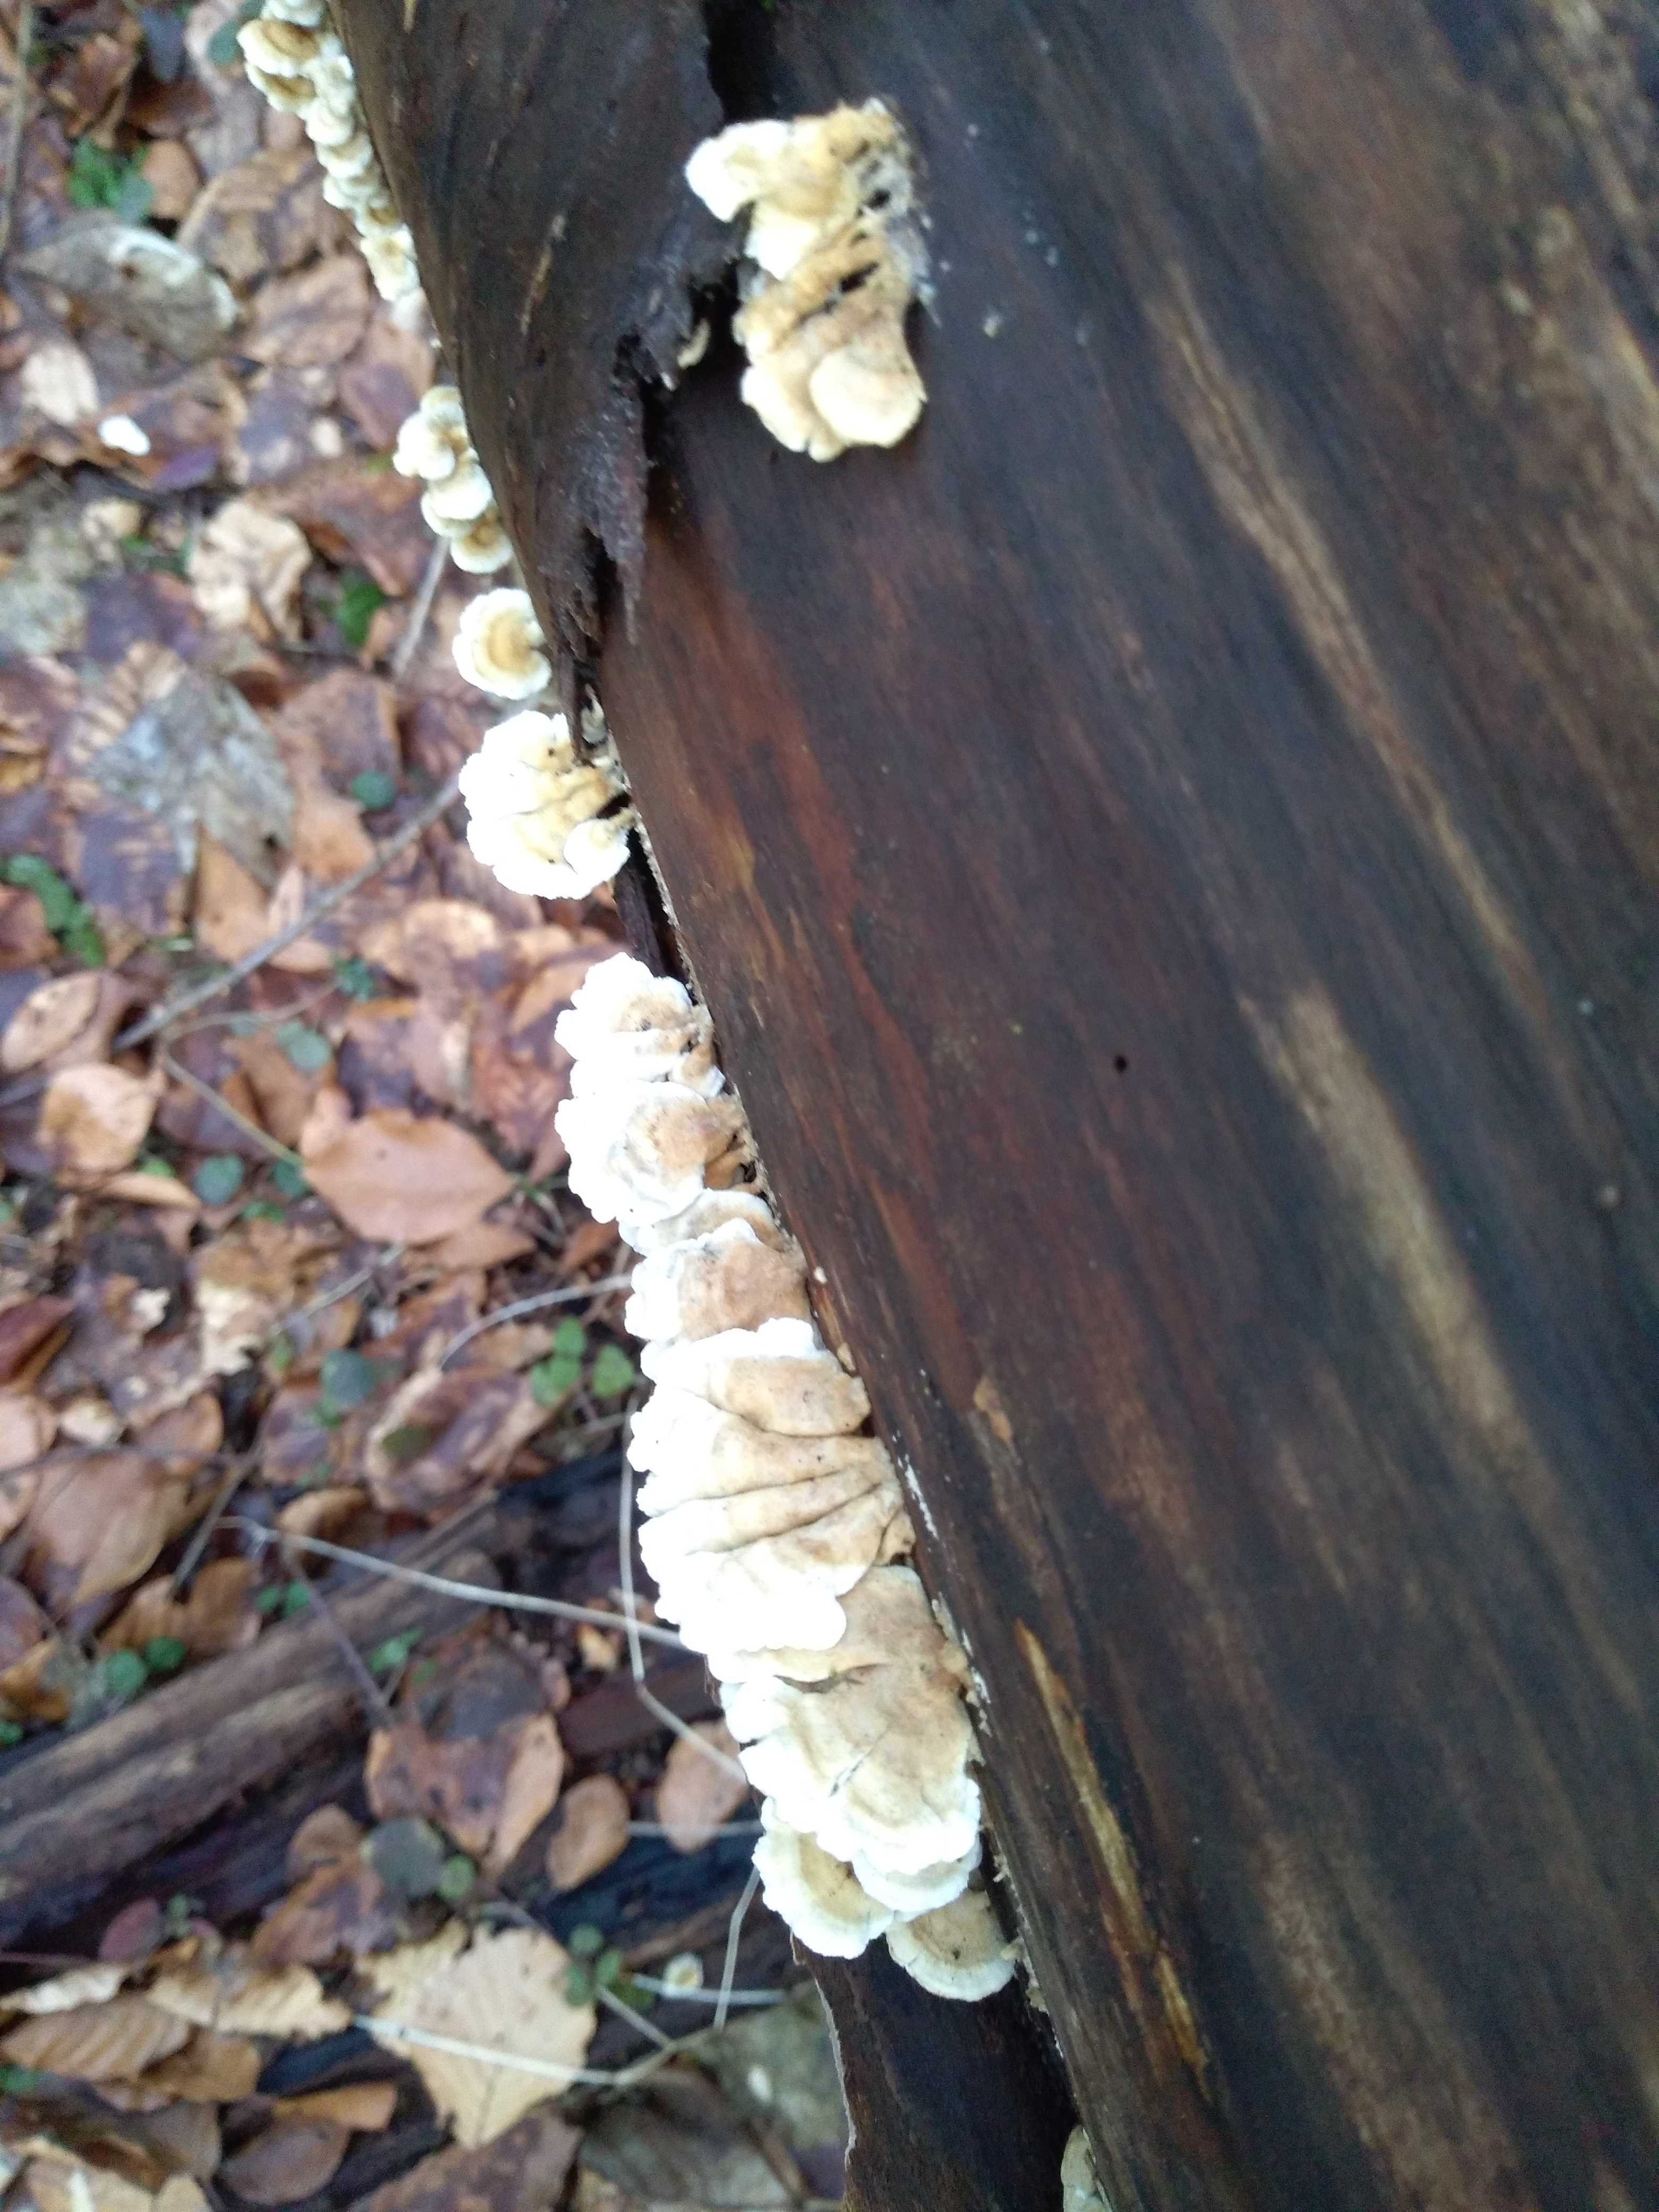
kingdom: Fungi
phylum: Basidiomycota
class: Agaricomycetes
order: Amylocorticiales
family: Amylocorticiaceae
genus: Plicaturopsis
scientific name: Plicaturopsis crispa
